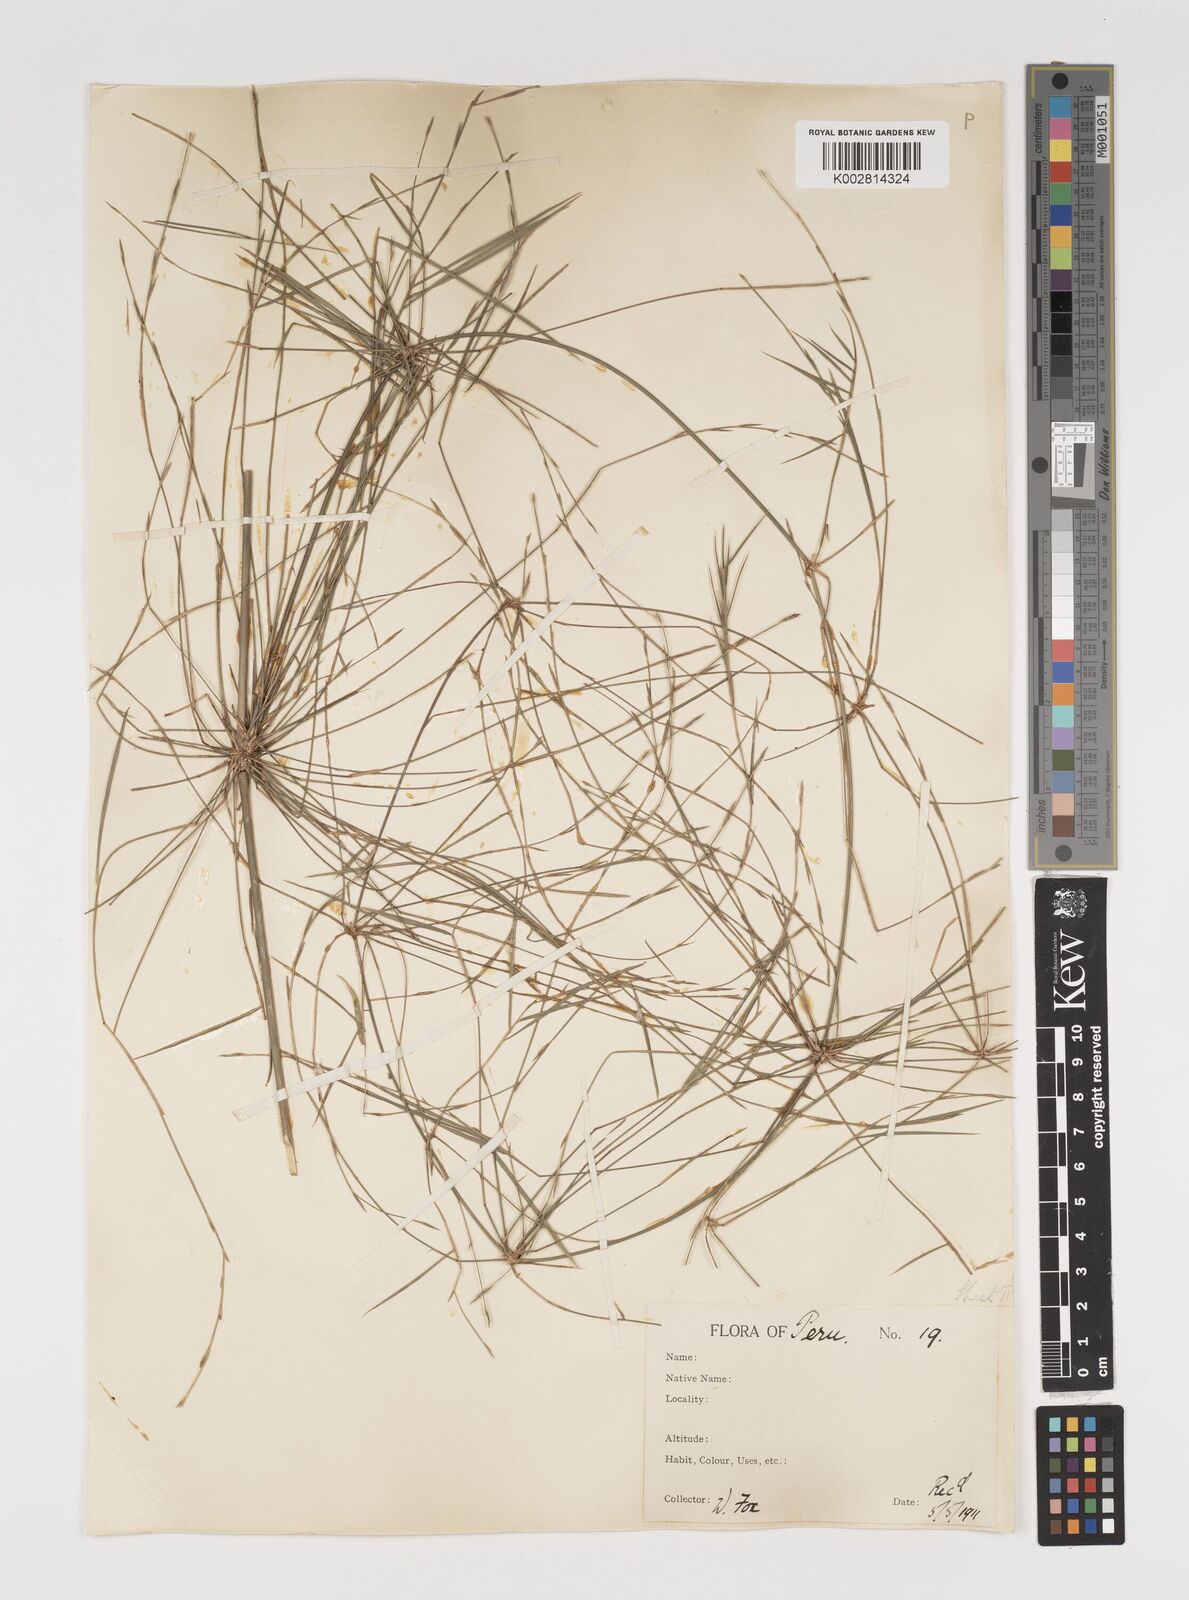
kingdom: Plantae
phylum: Tracheophyta
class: Liliopsida
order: Poales
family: Poaceae
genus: Arthrostylidium
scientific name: Arthrostylidium
